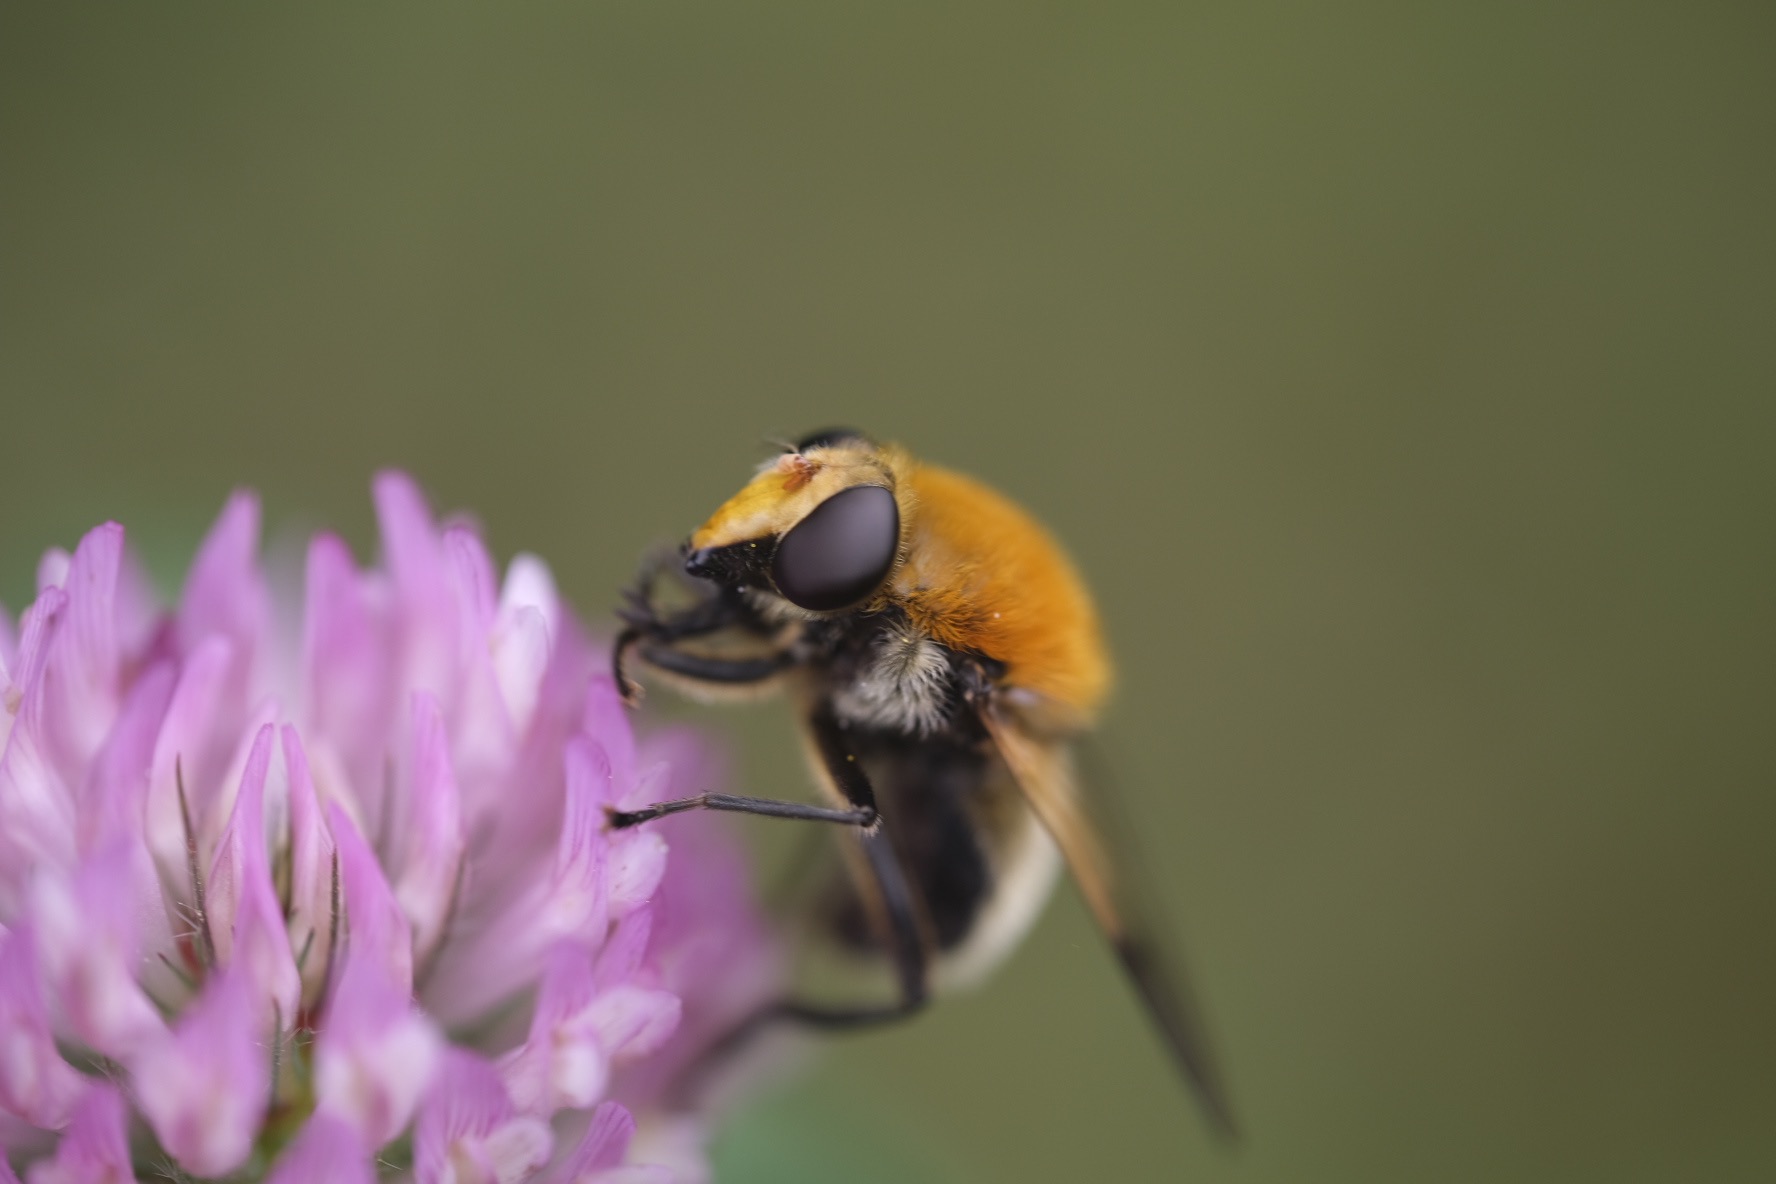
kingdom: Animalia
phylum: Arthropoda
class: Insecta
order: Diptera
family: Syrphidae
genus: Sericomyia
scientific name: Sericomyia superbiens
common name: Brun bjørnesvirreflue
